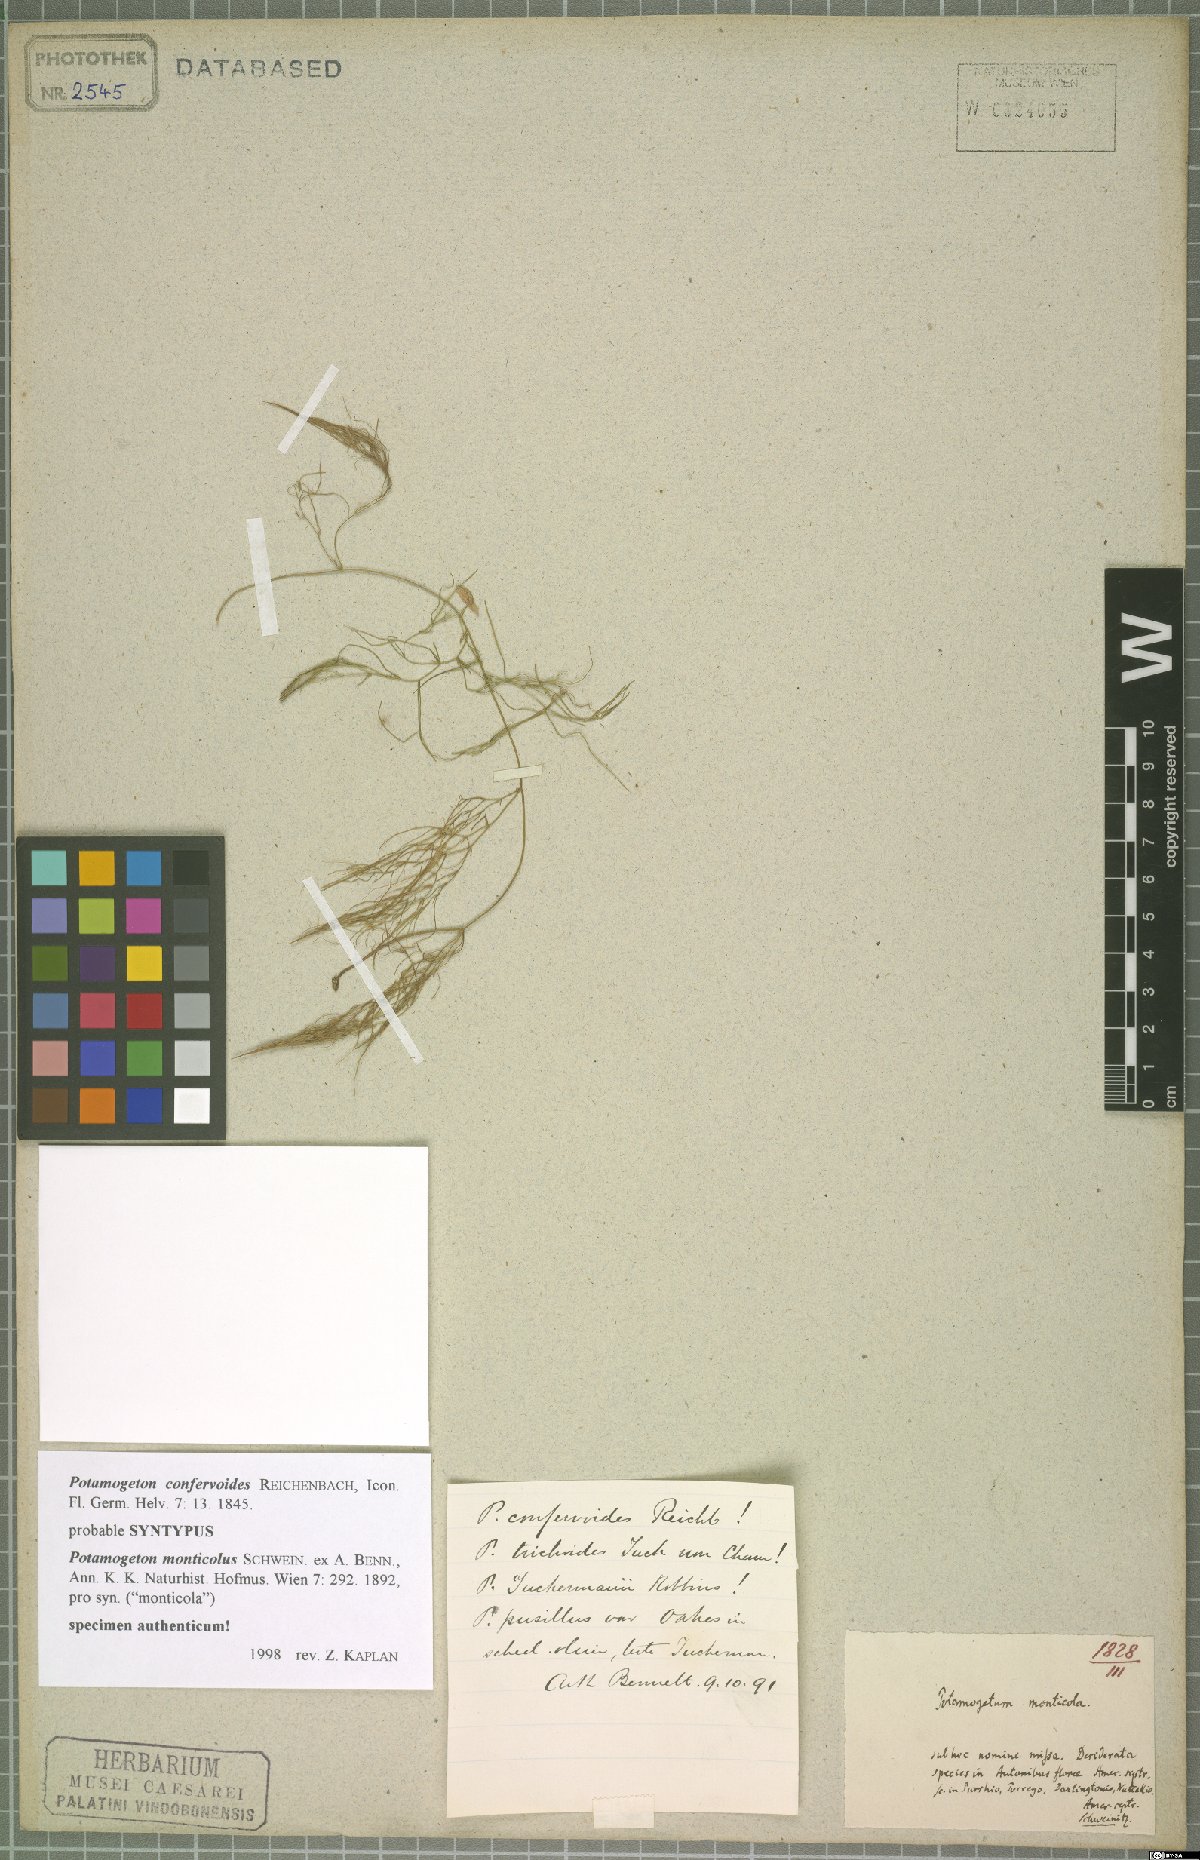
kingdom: Plantae
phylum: Tracheophyta
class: Liliopsida
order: Alismatales
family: Potamogetonaceae
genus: Potamogeton
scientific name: Potamogeton confervoides
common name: Alga pondweed
